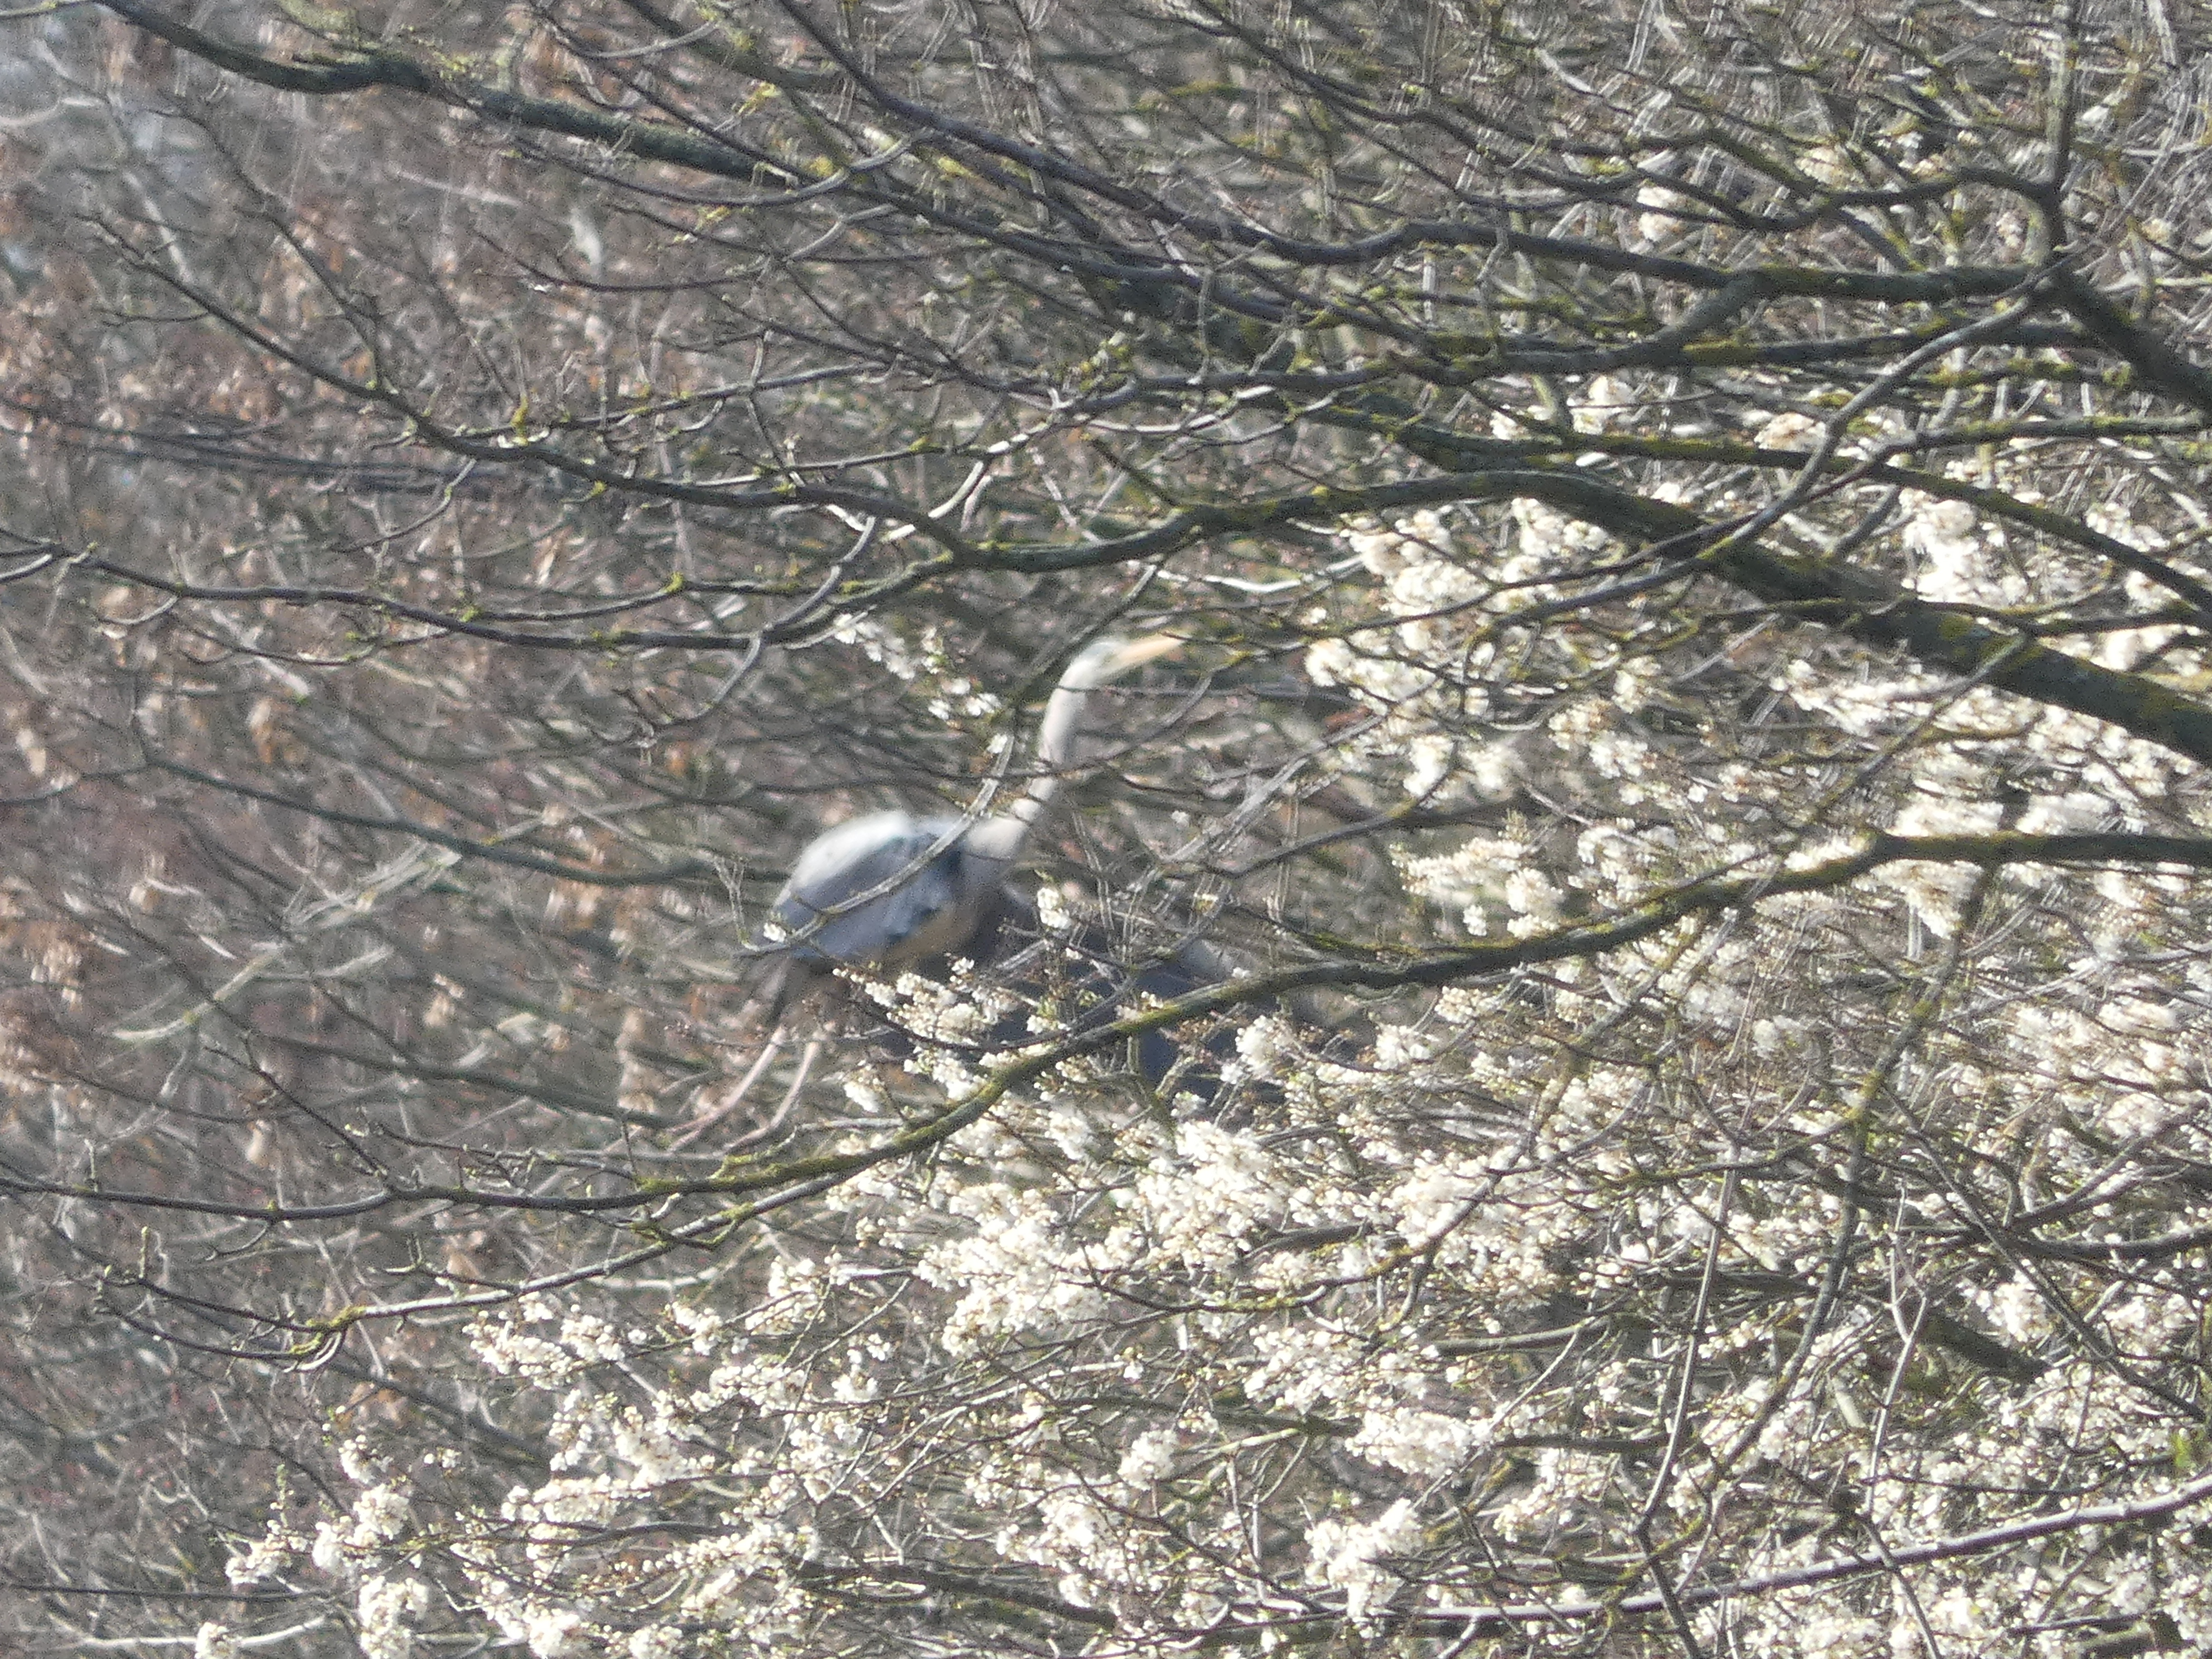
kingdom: Animalia
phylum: Chordata
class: Aves
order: Pelecaniformes
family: Ardeidae
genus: Ardea
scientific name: Ardea cinerea
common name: Fiskehejre
